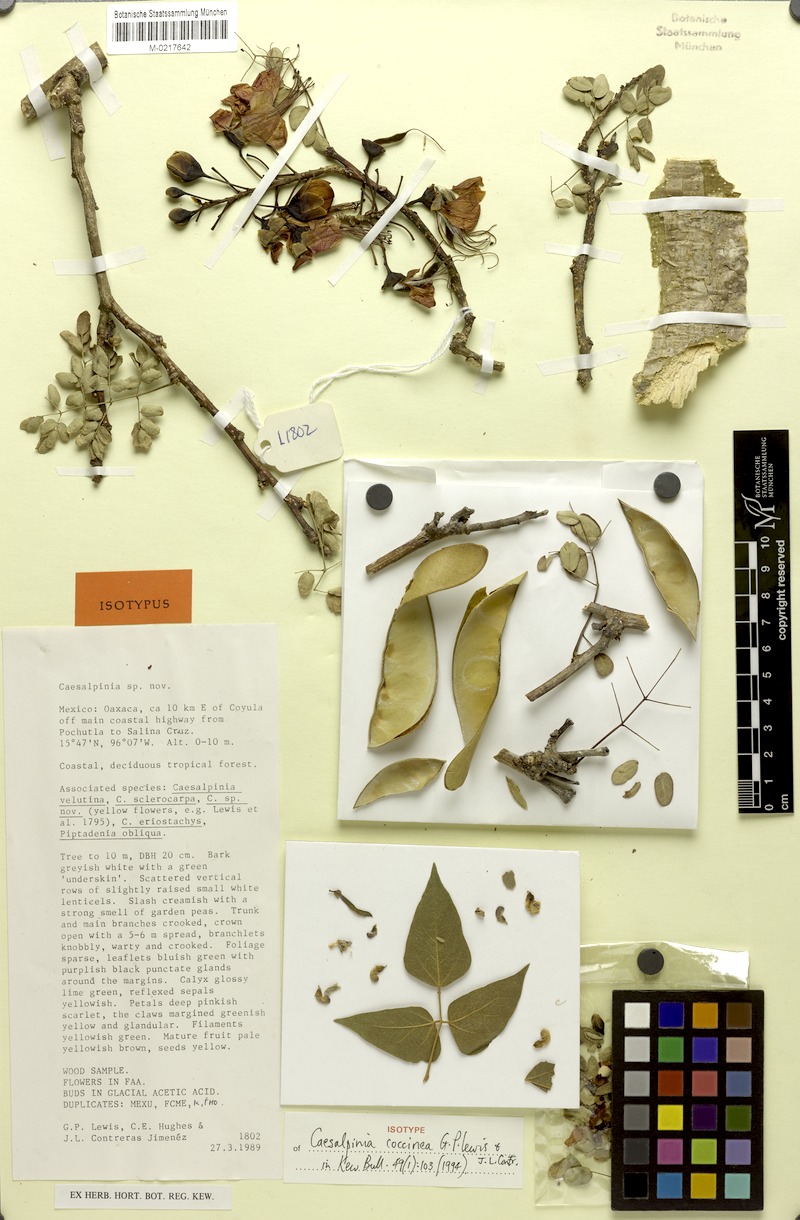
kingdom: Plantae
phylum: Tracheophyta
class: Magnoliopsida
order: Fabales
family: Fabaceae
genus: Erythrostemon
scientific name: Erythrostemon coccineus
